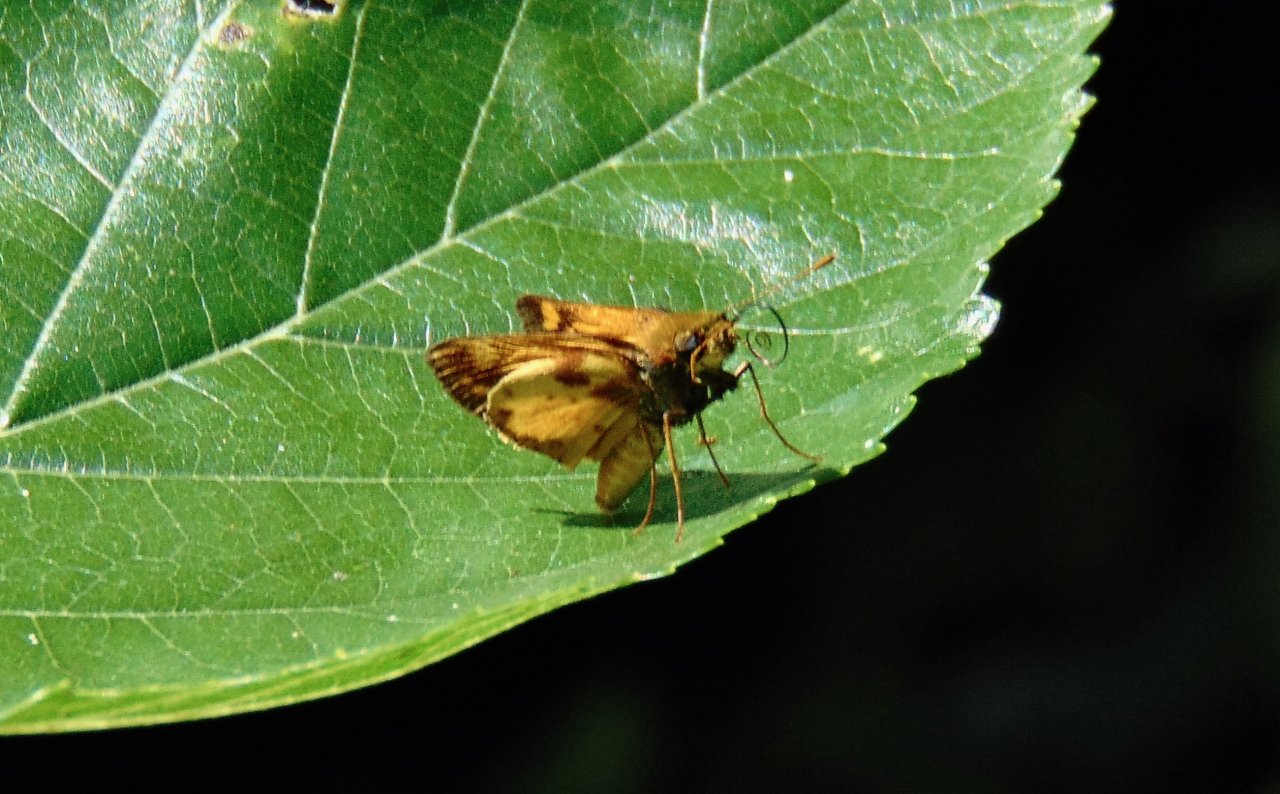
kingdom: Animalia
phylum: Arthropoda
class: Insecta
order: Lepidoptera
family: Hesperiidae
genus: Lon
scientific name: Lon zabulon
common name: Zabulon Skipper
